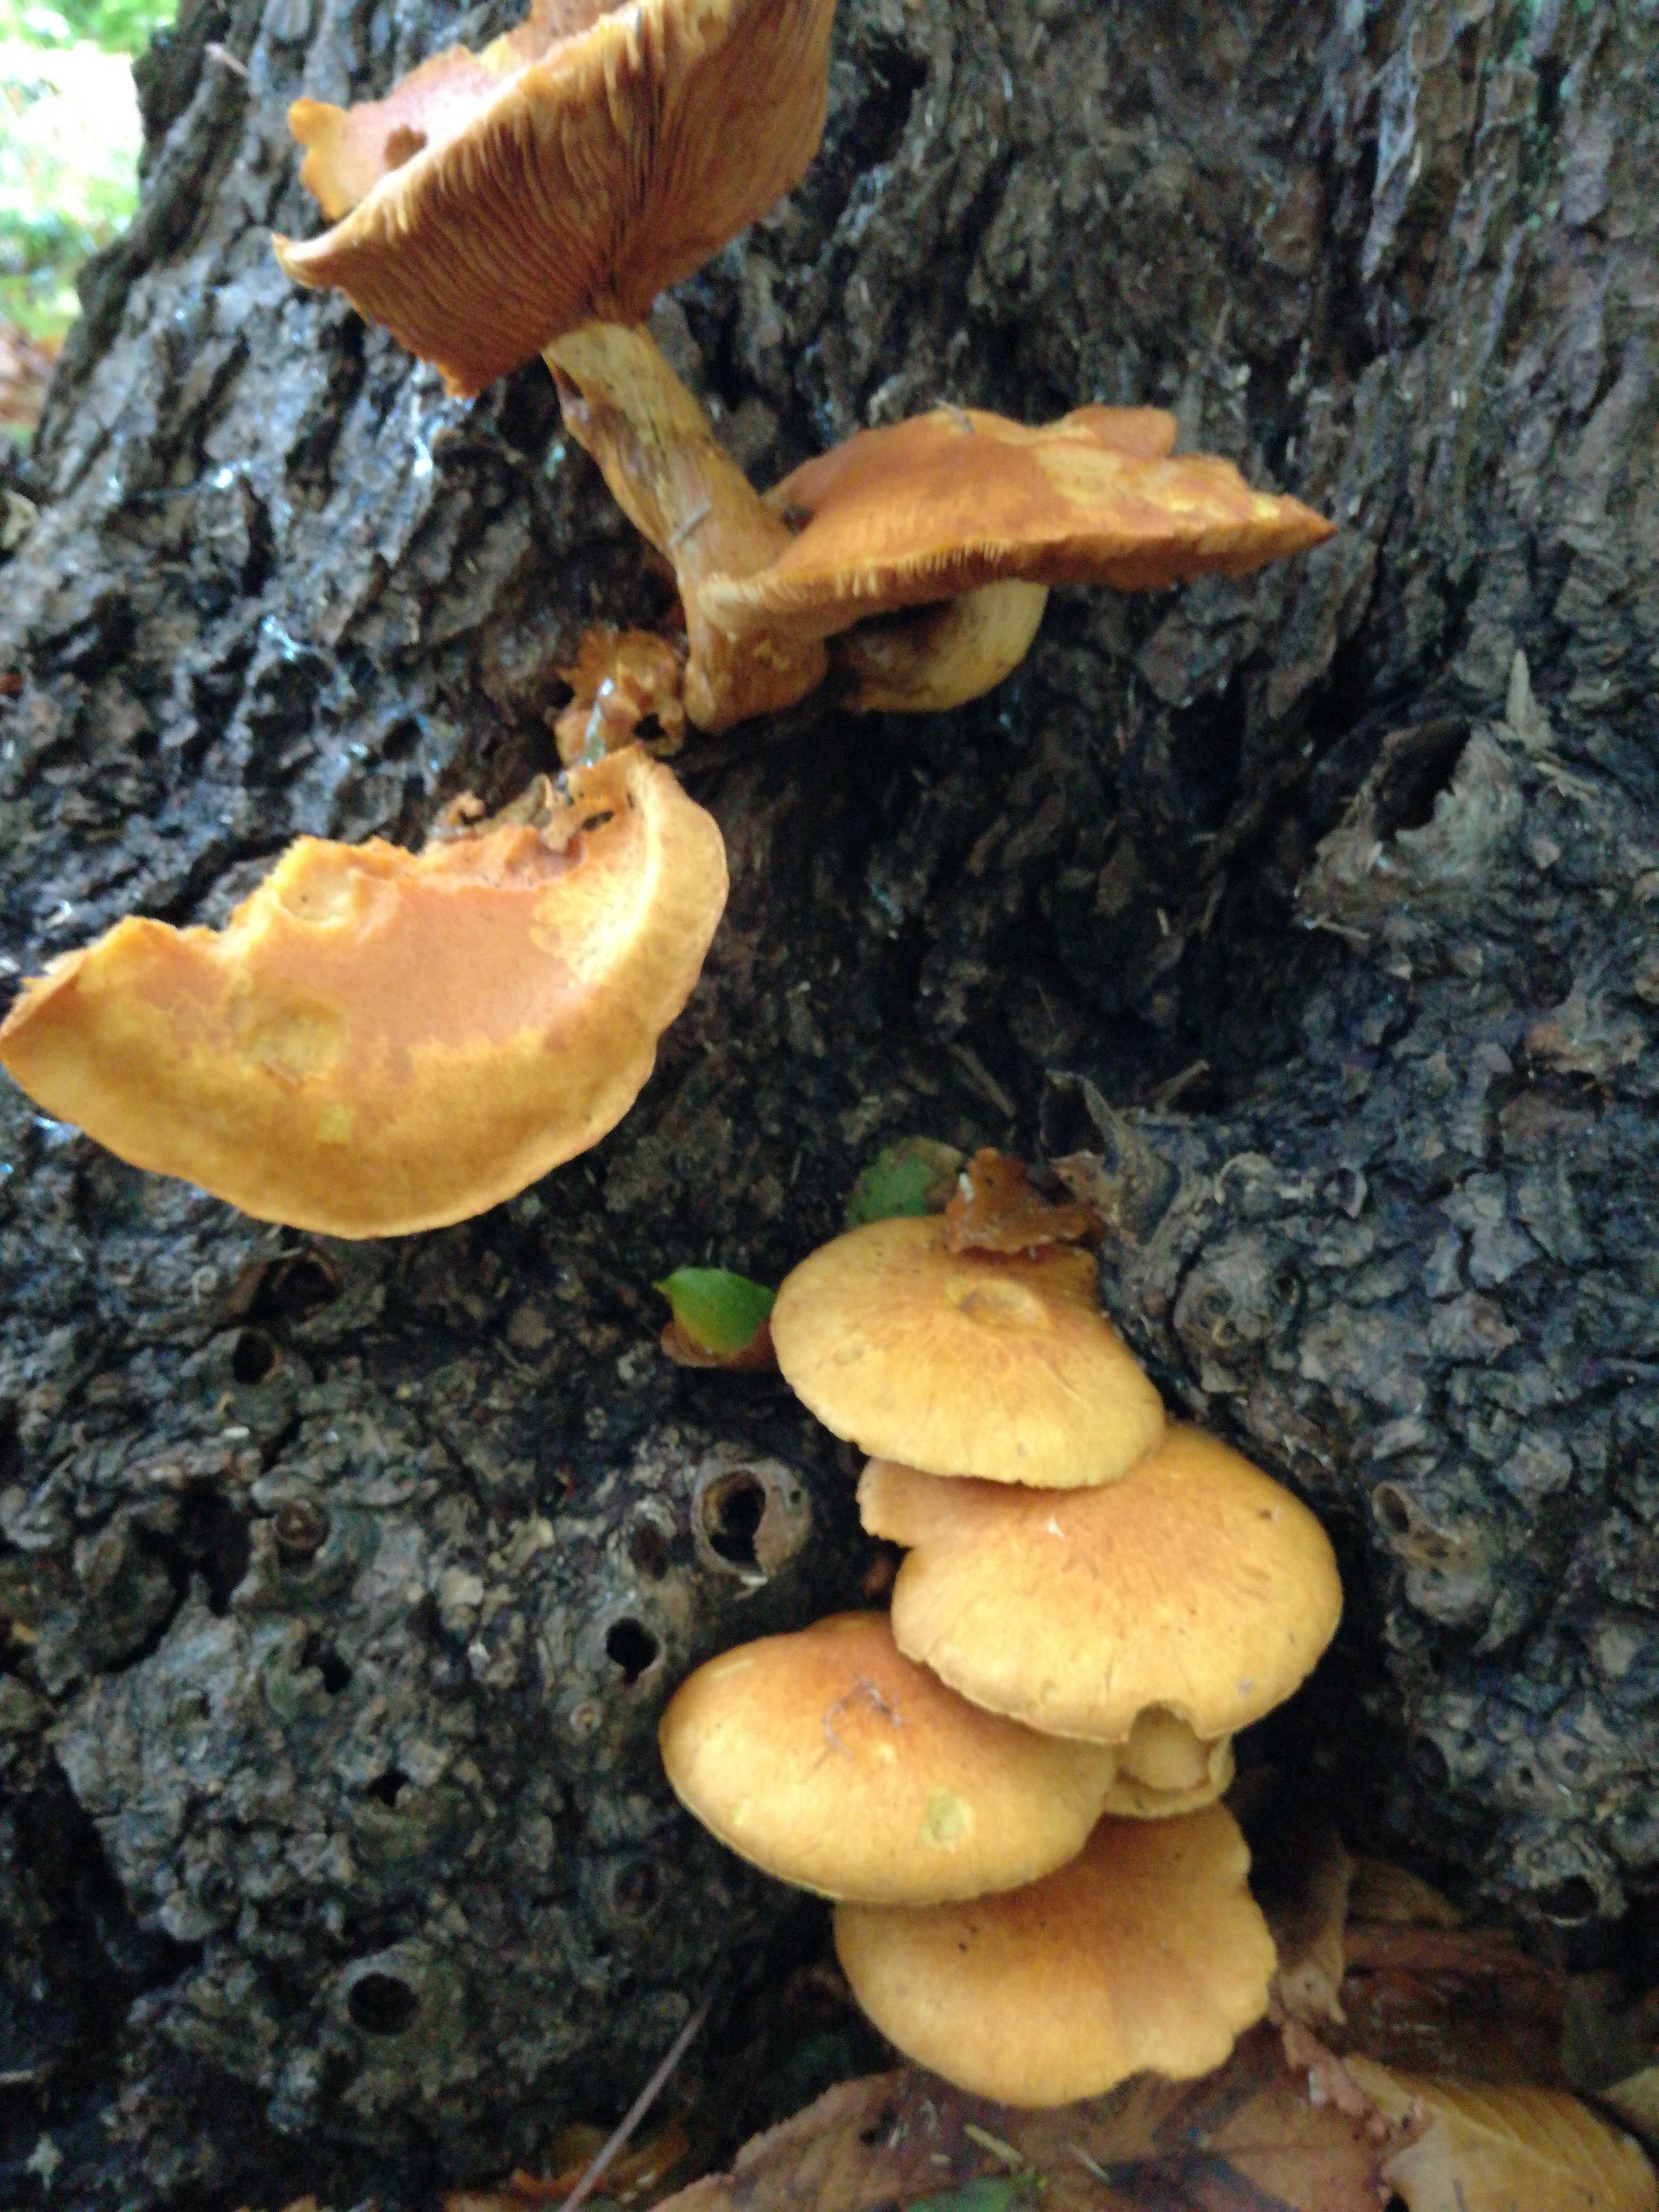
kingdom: Fungi
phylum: Basidiomycota
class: Agaricomycetes
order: Agaricales
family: Hymenogastraceae
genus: Gymnopilus
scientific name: Gymnopilus spectabilis
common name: fibret flammehat
